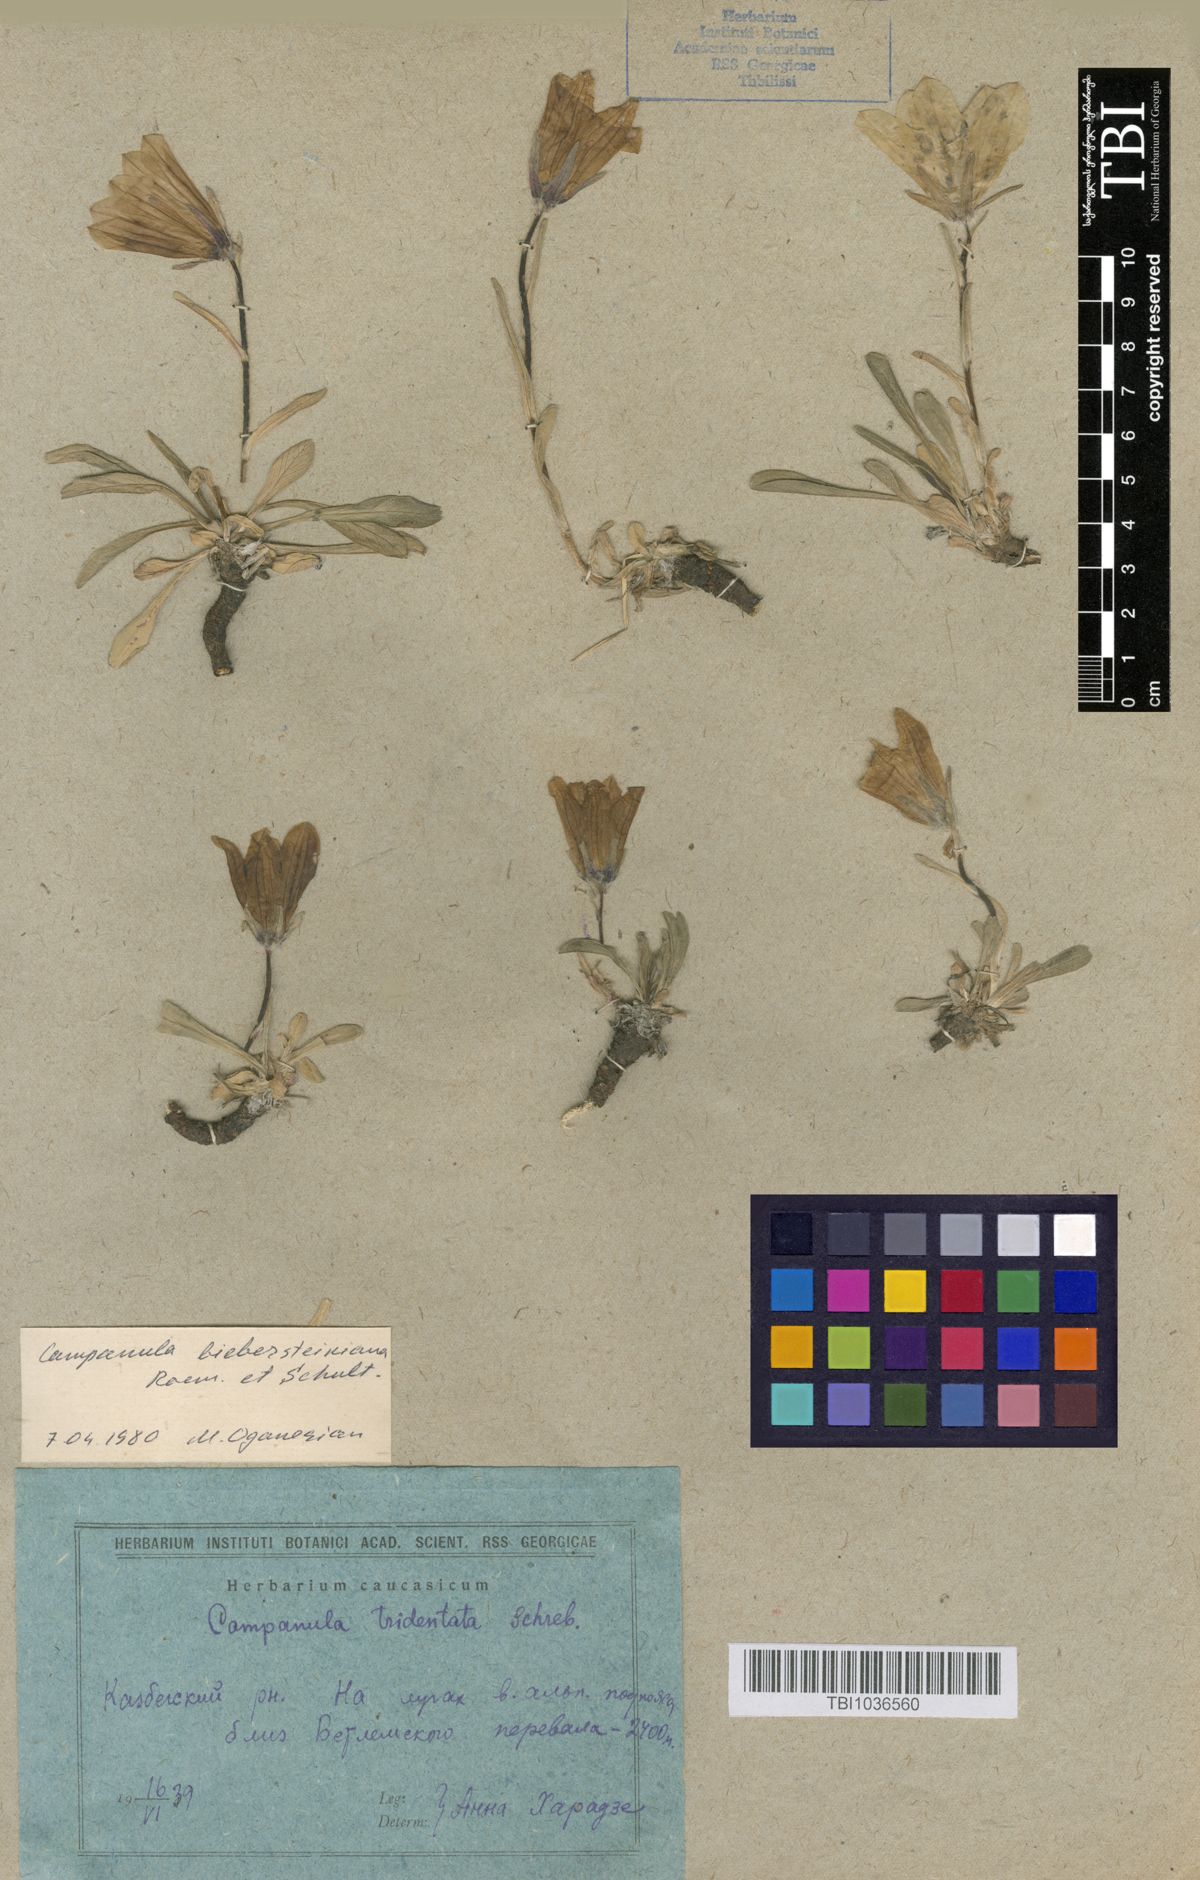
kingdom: Plantae
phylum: Tracheophyta
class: Magnoliopsida
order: Asterales
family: Campanulaceae
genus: Campanula
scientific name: Campanula tridentata
